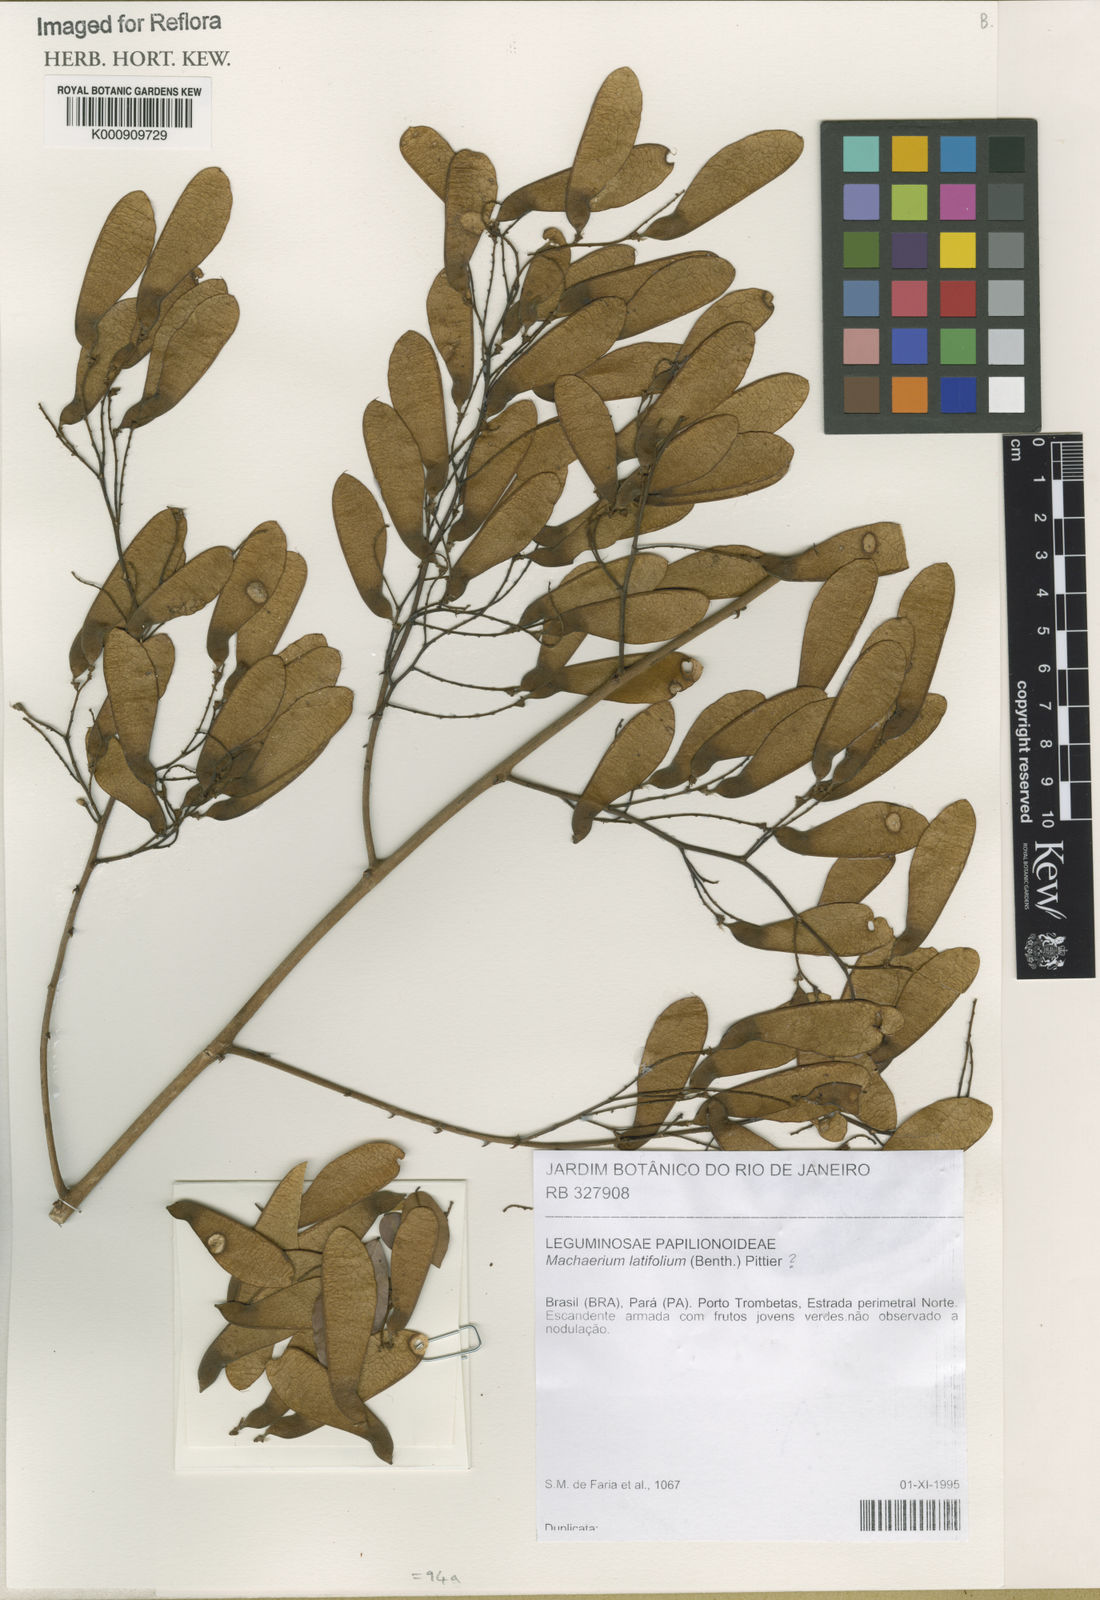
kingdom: Plantae
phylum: Tracheophyta
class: Magnoliopsida
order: Fabales
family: Fabaceae
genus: Machaerium
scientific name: Machaerium pittieri
